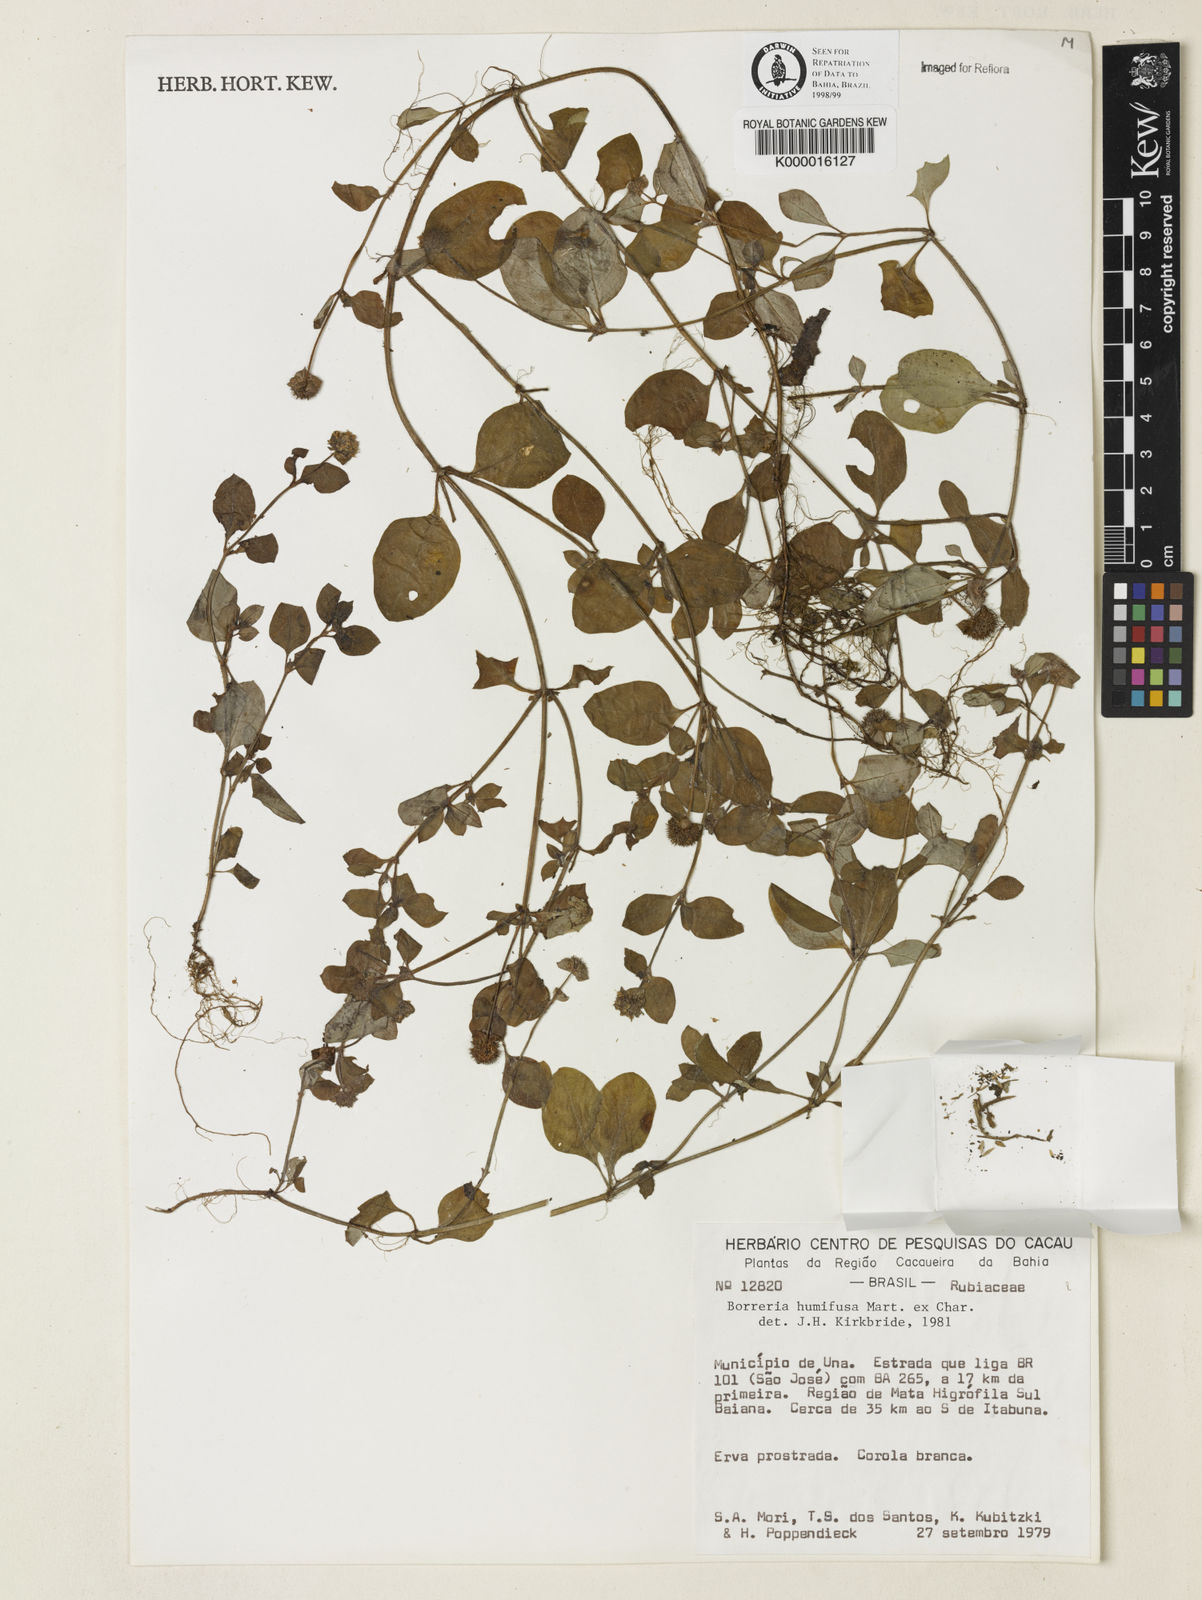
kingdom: Plantae
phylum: Tracheophyta
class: Magnoliopsida
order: Gentianales
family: Rubiaceae
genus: Spermacoce
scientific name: Spermacoce scabiosoides
